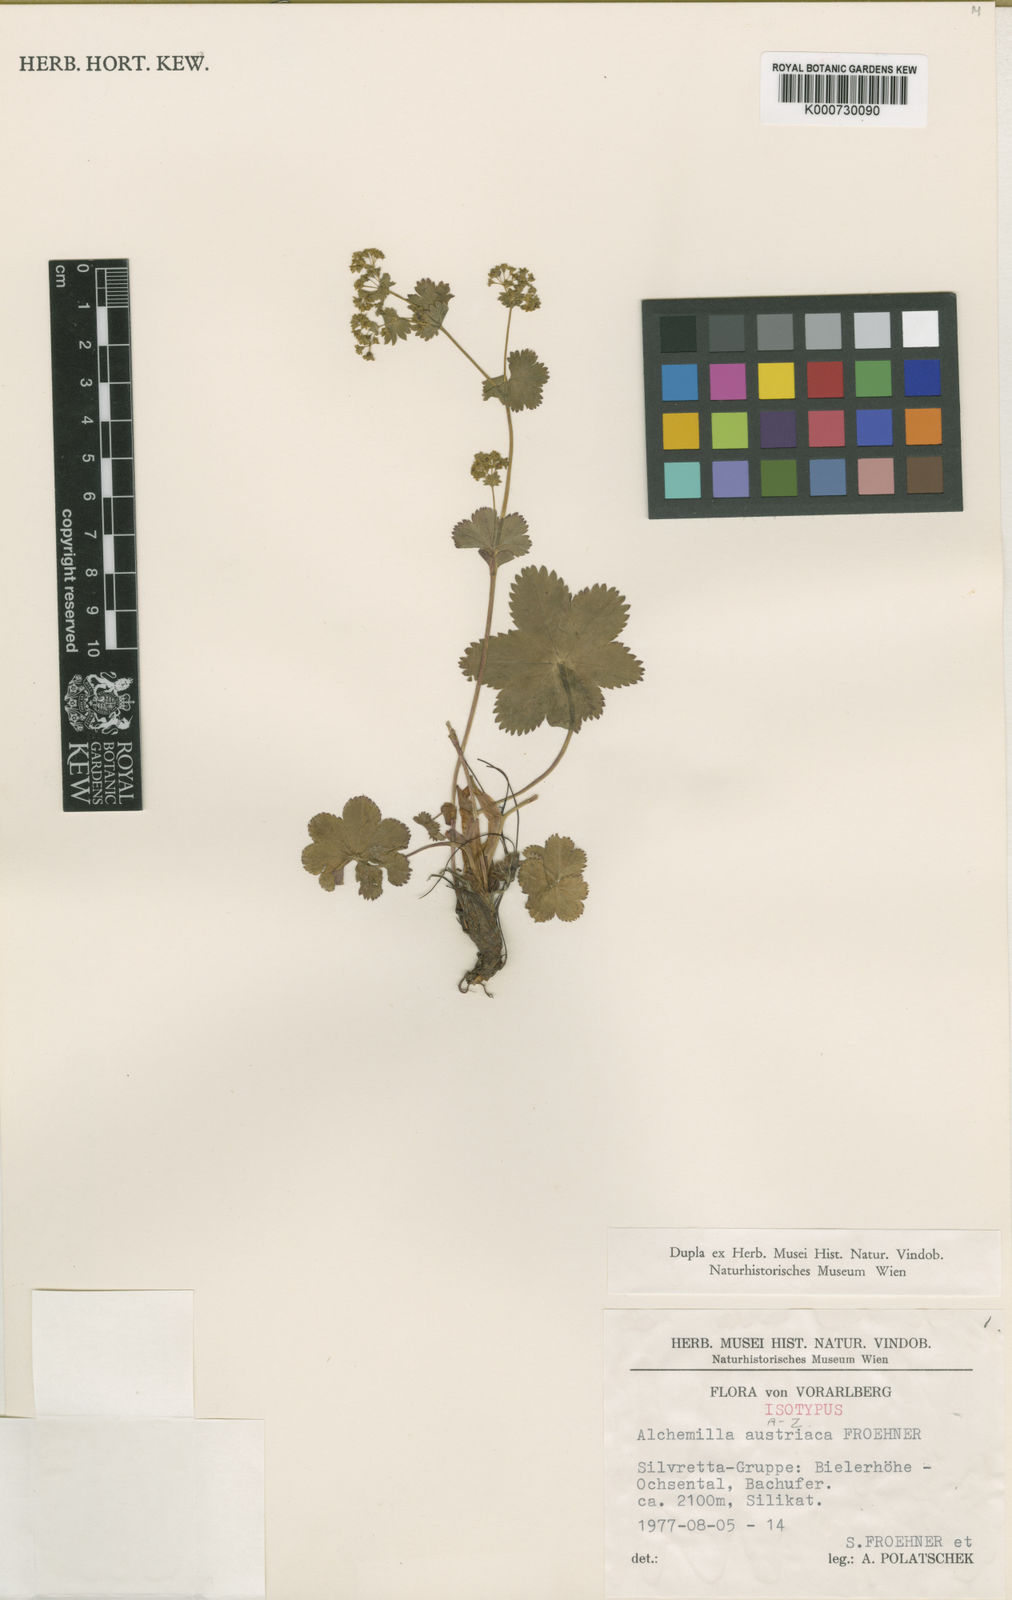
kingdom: Plantae
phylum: Tracheophyta
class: Magnoliopsida
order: Rosales
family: Rosaceae
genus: Alchemilla
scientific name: Alchemilla
